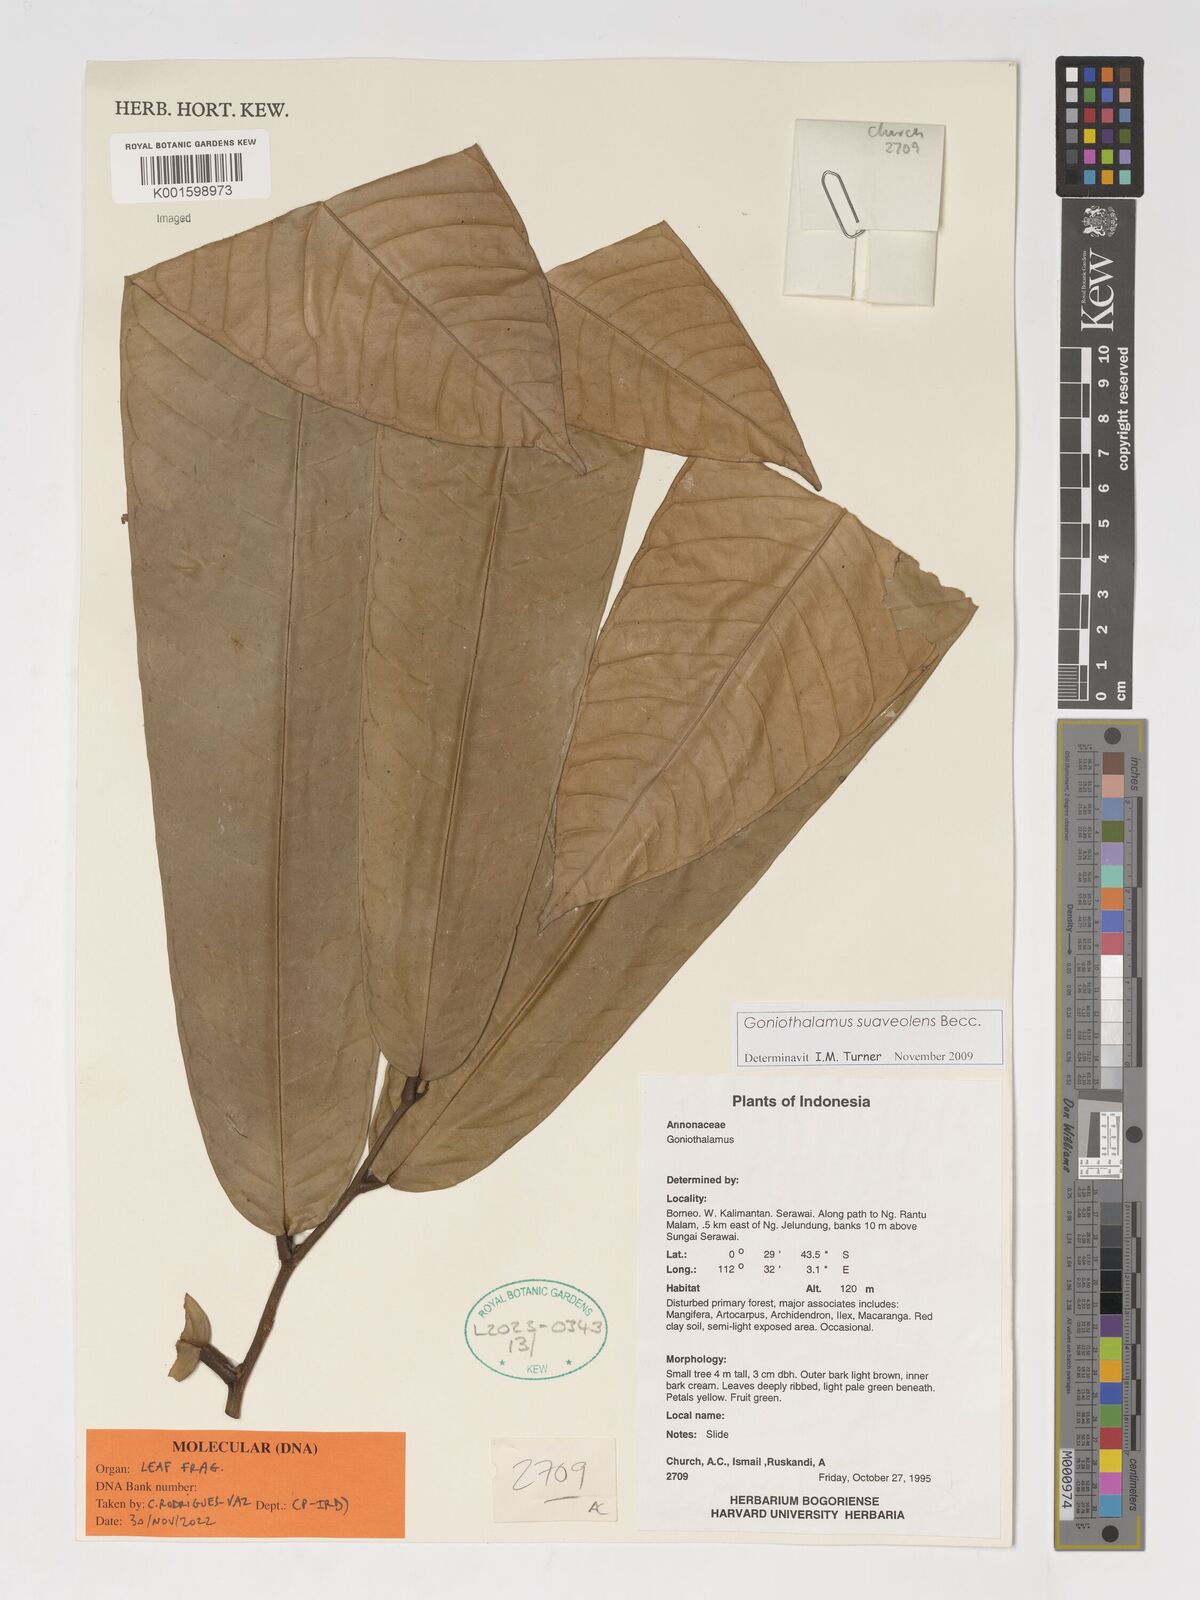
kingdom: Plantae
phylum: Tracheophyta
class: Magnoliopsida
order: Magnoliales
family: Annonaceae
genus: Goniothalamus
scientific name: Goniothalamus macrophyllus
